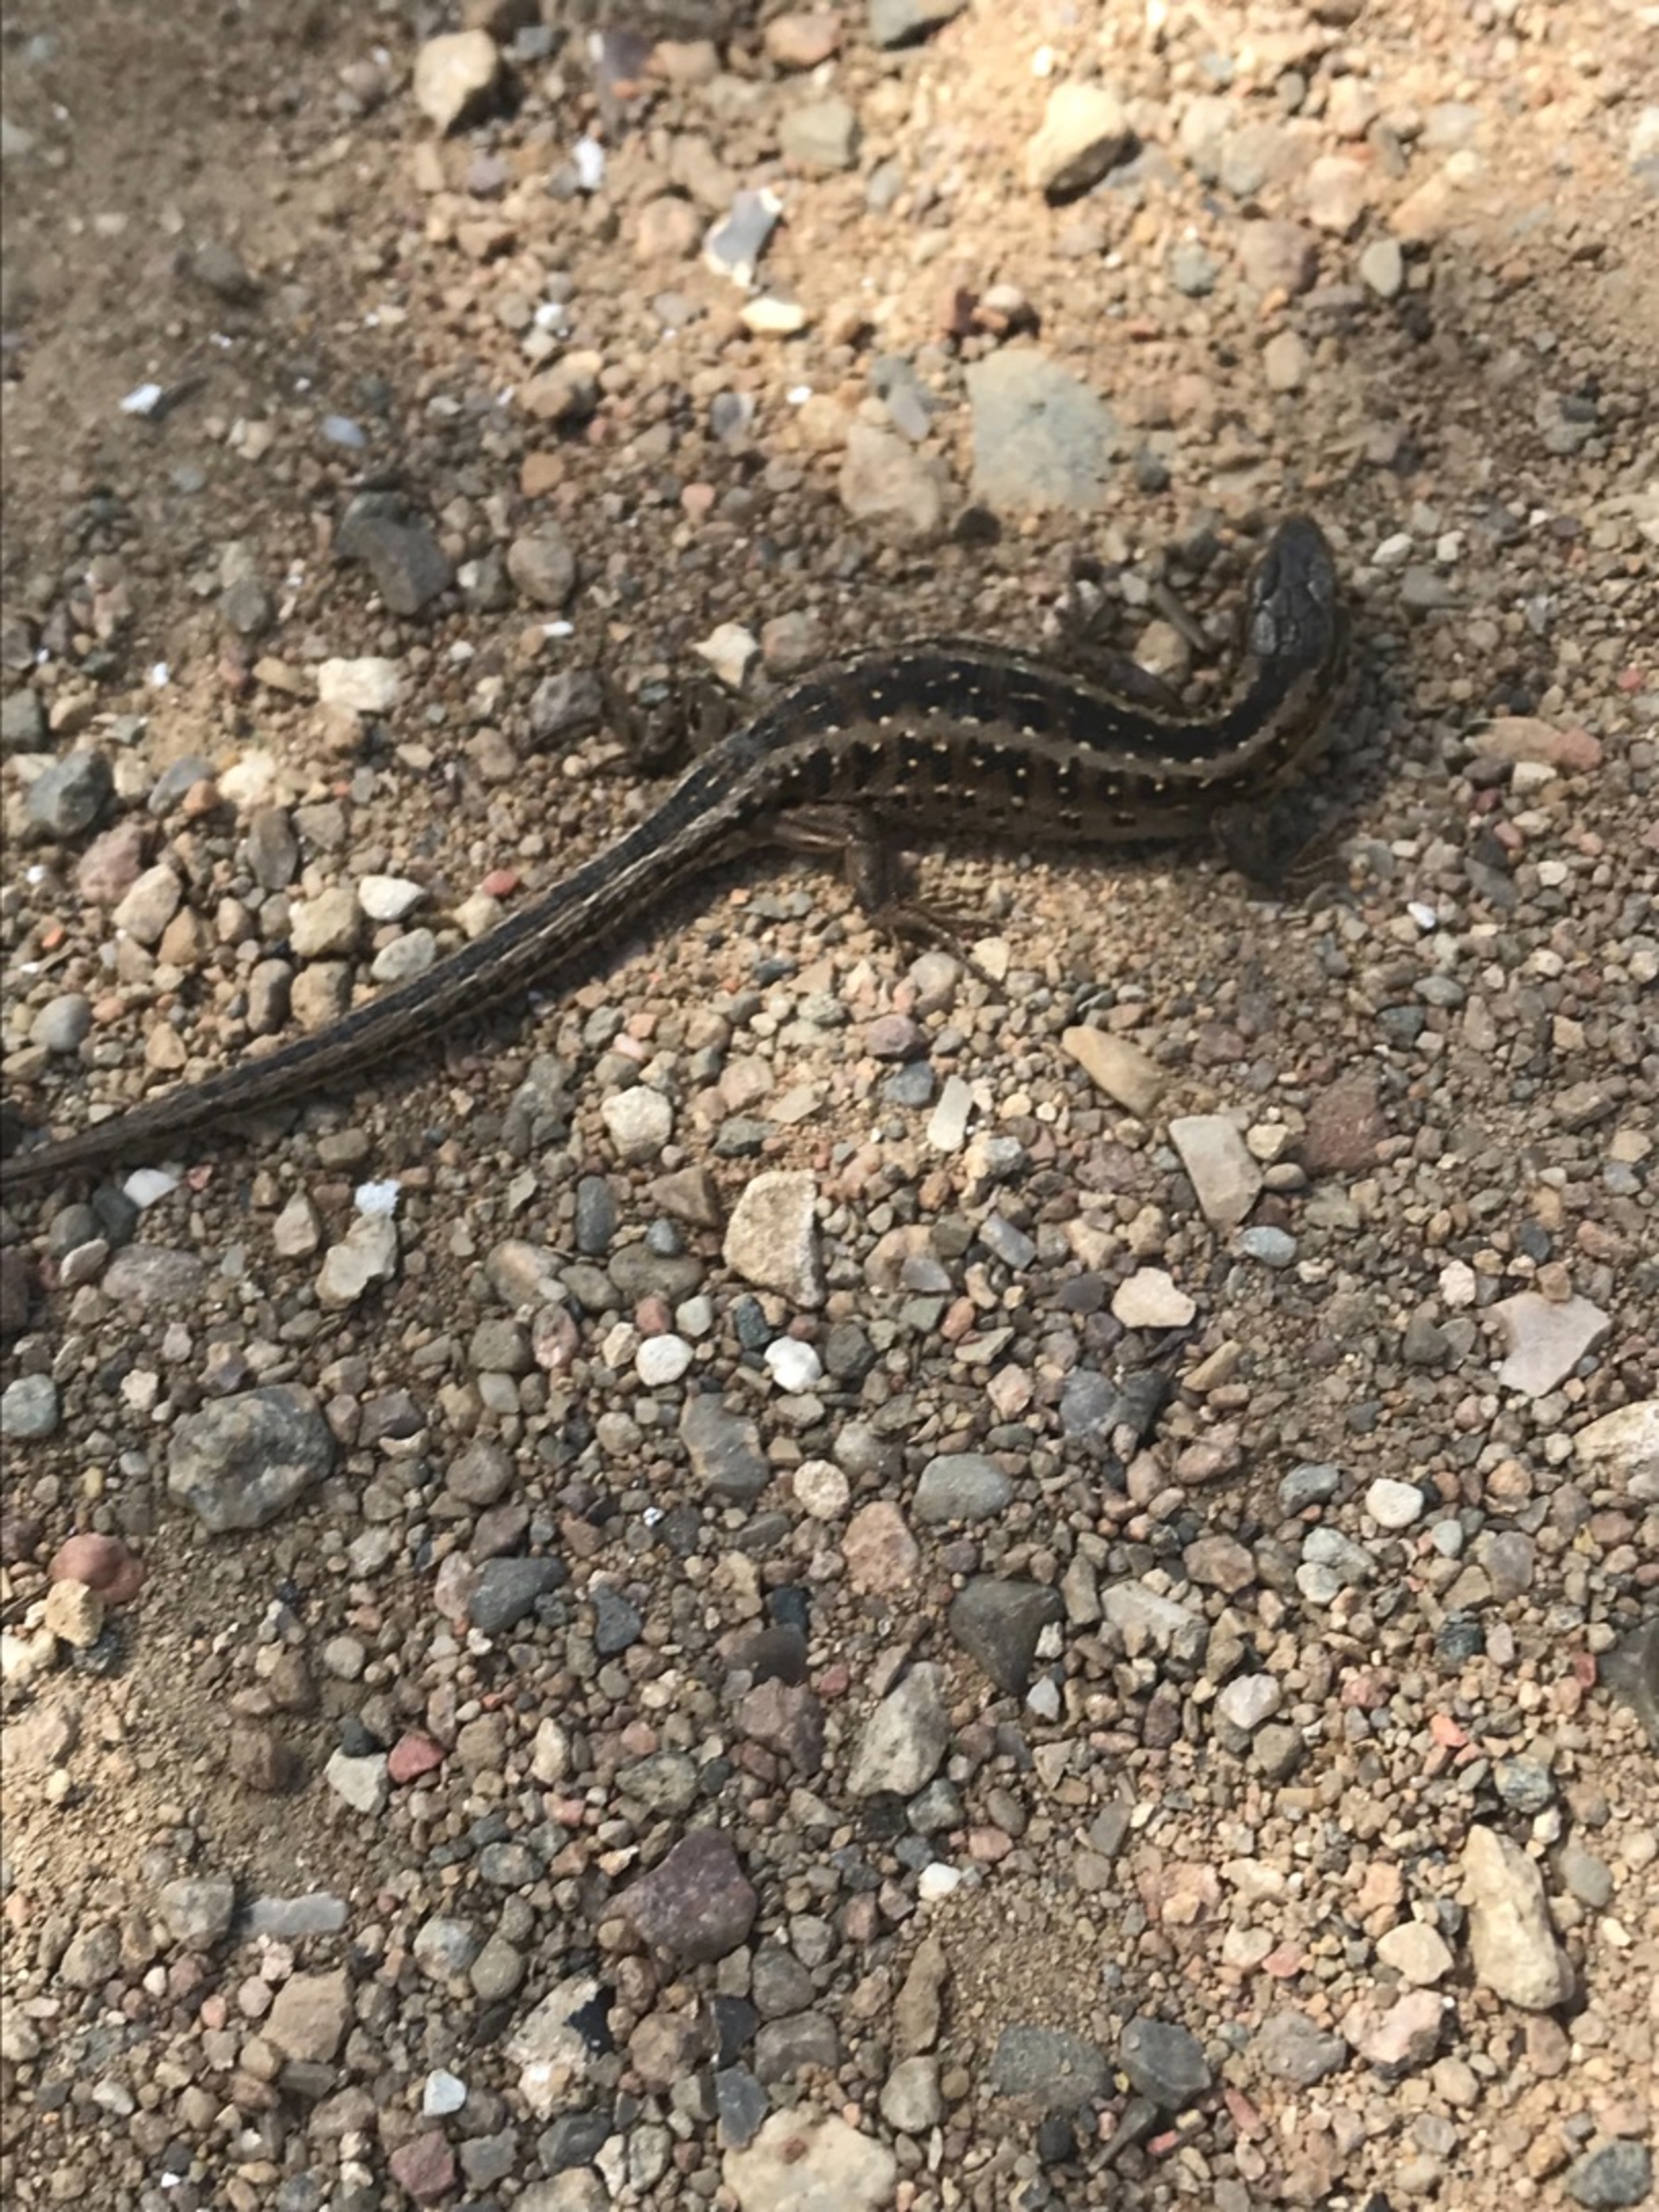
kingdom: Animalia
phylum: Chordata
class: Squamata
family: Lacertidae
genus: Lacerta
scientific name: Lacerta agilis
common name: Markfirben
